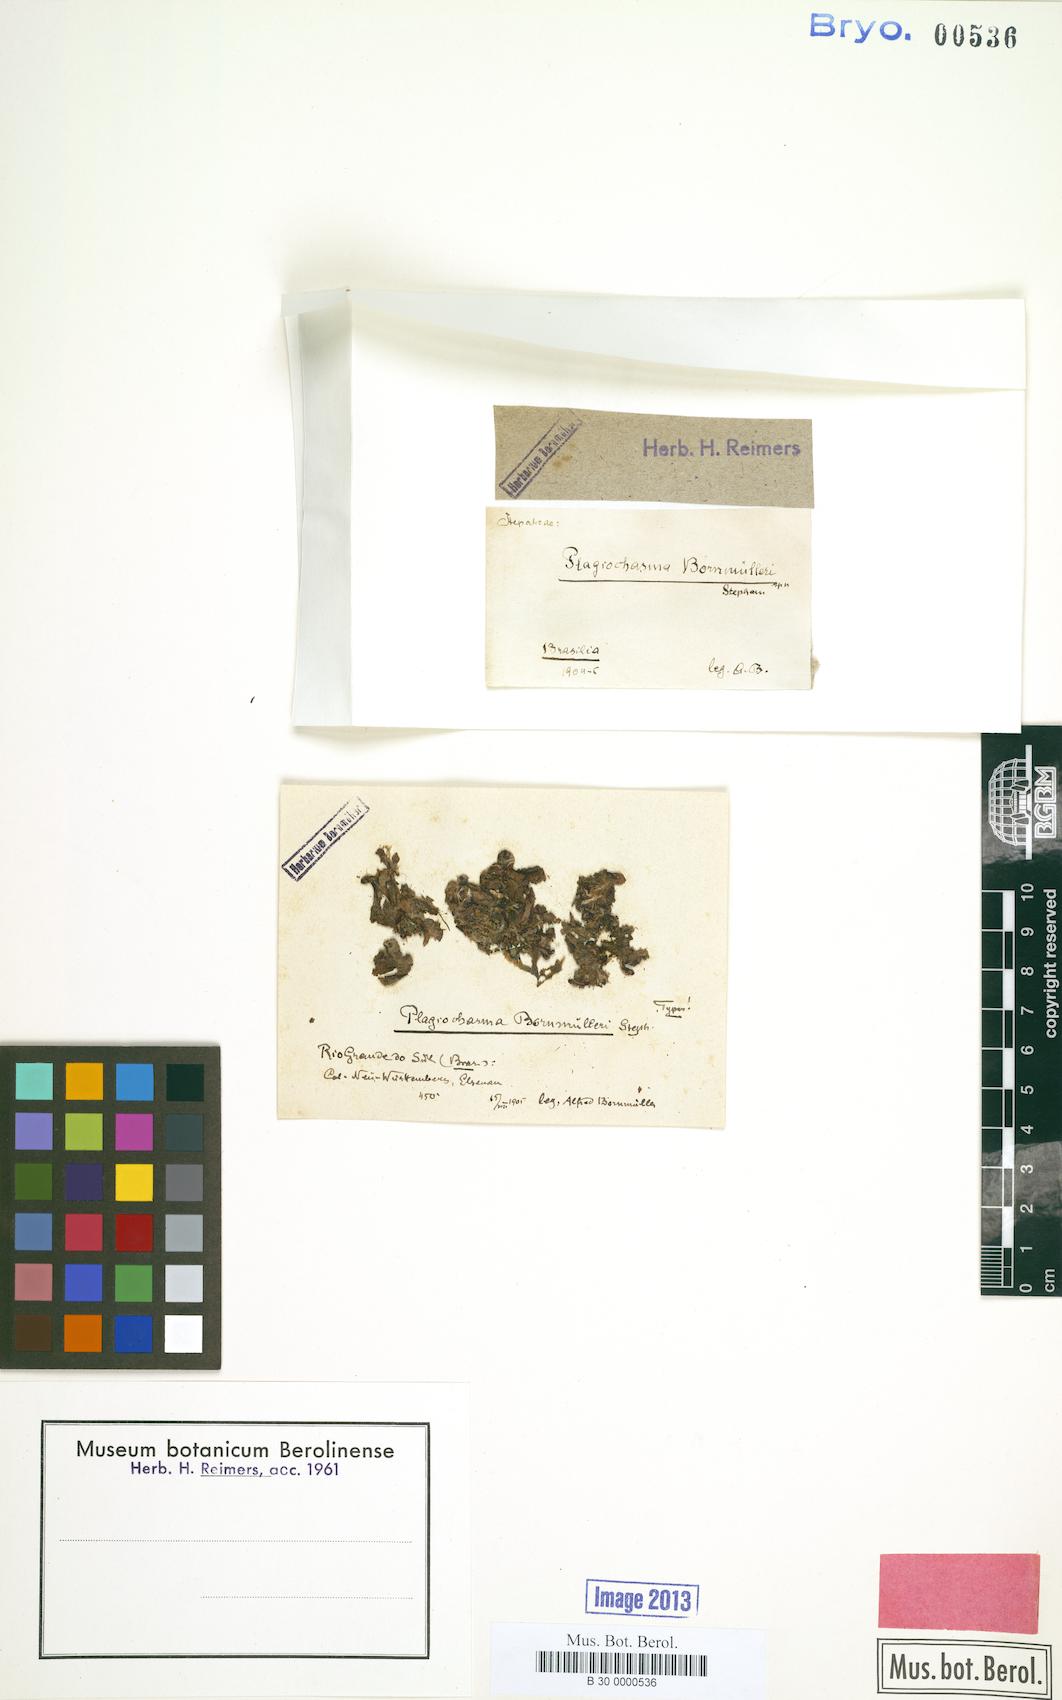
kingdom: Plantae
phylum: Marchantiophyta
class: Marchantiopsida
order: Marchantiales
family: Aytoniaceae
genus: Plagiochasma
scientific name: Plagiochasma rupestre
